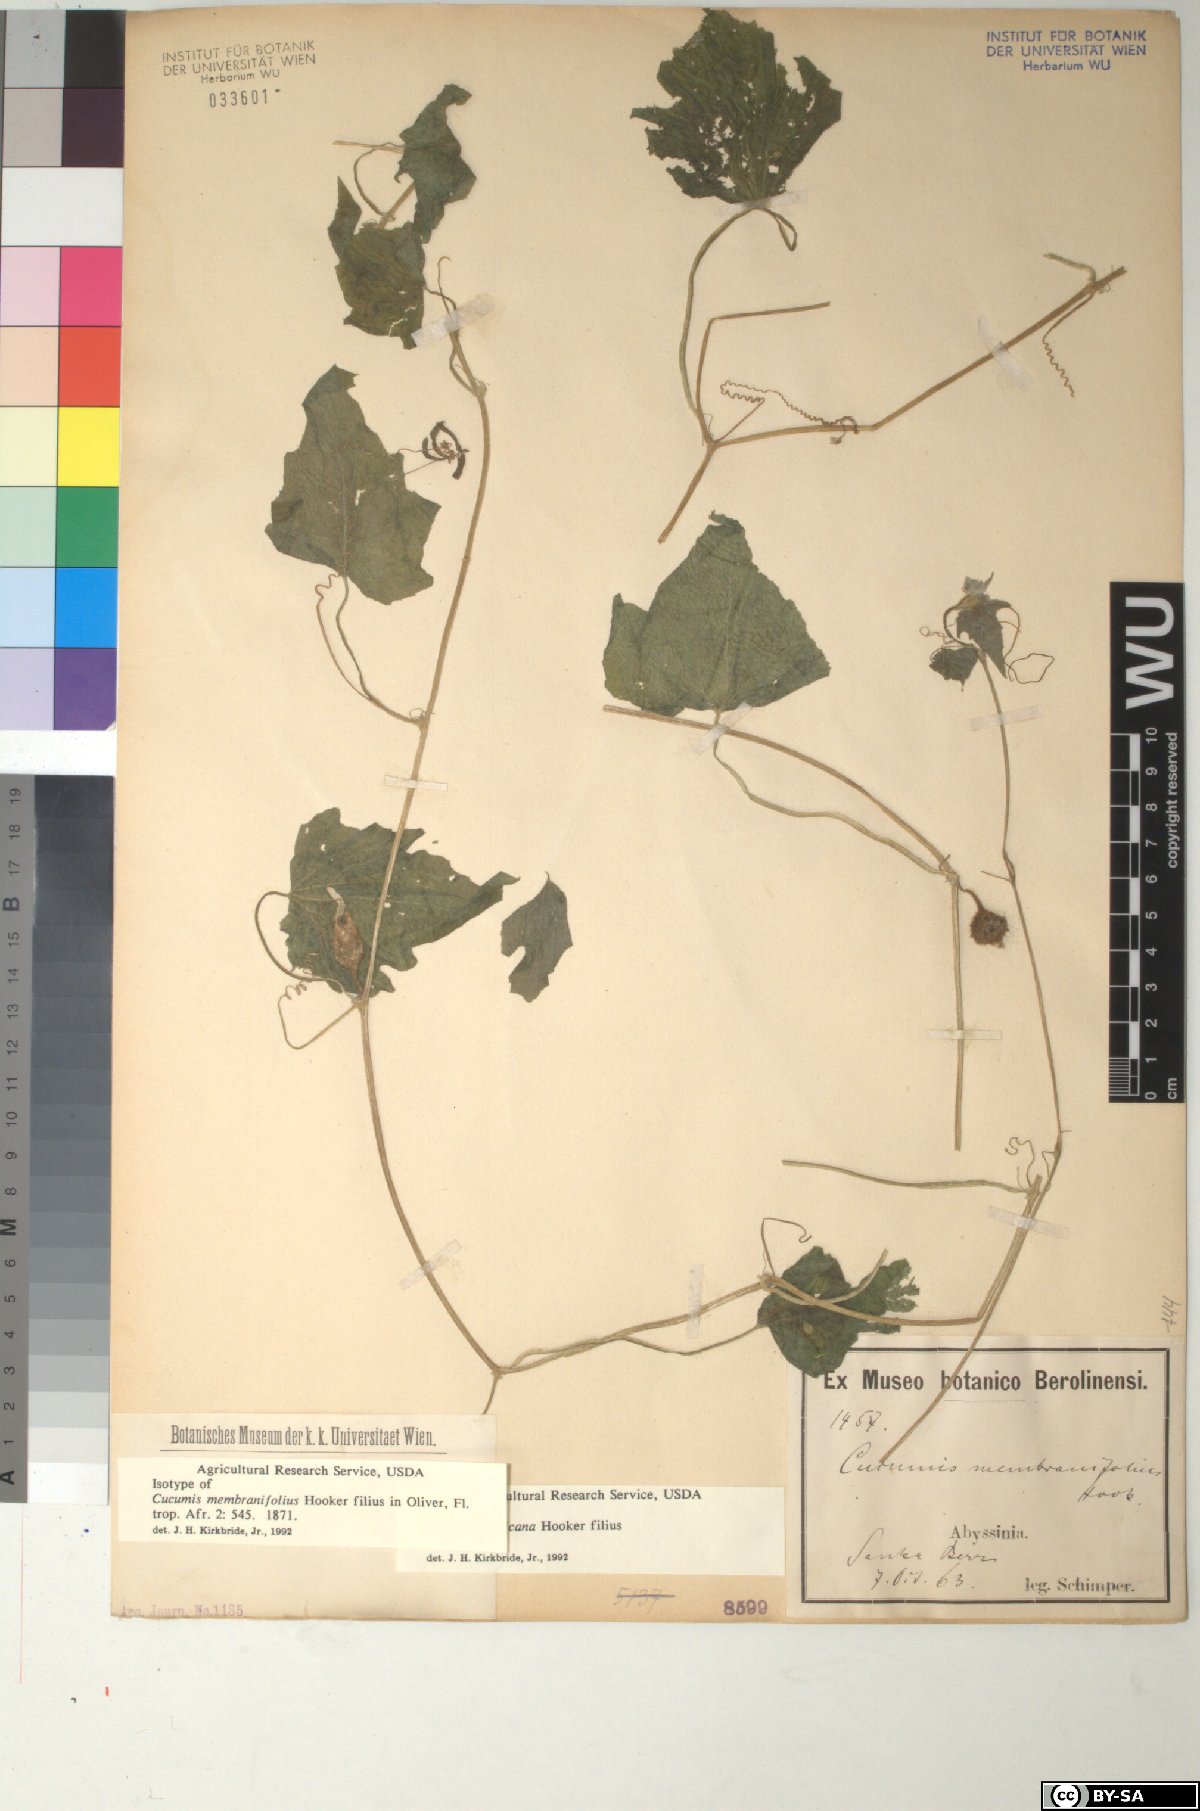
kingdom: Plantae
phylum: Tracheophyta
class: Magnoliopsida
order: Cucurbitales
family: Cucurbitaceae
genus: Cucumis
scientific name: Cucumis oreosyce
